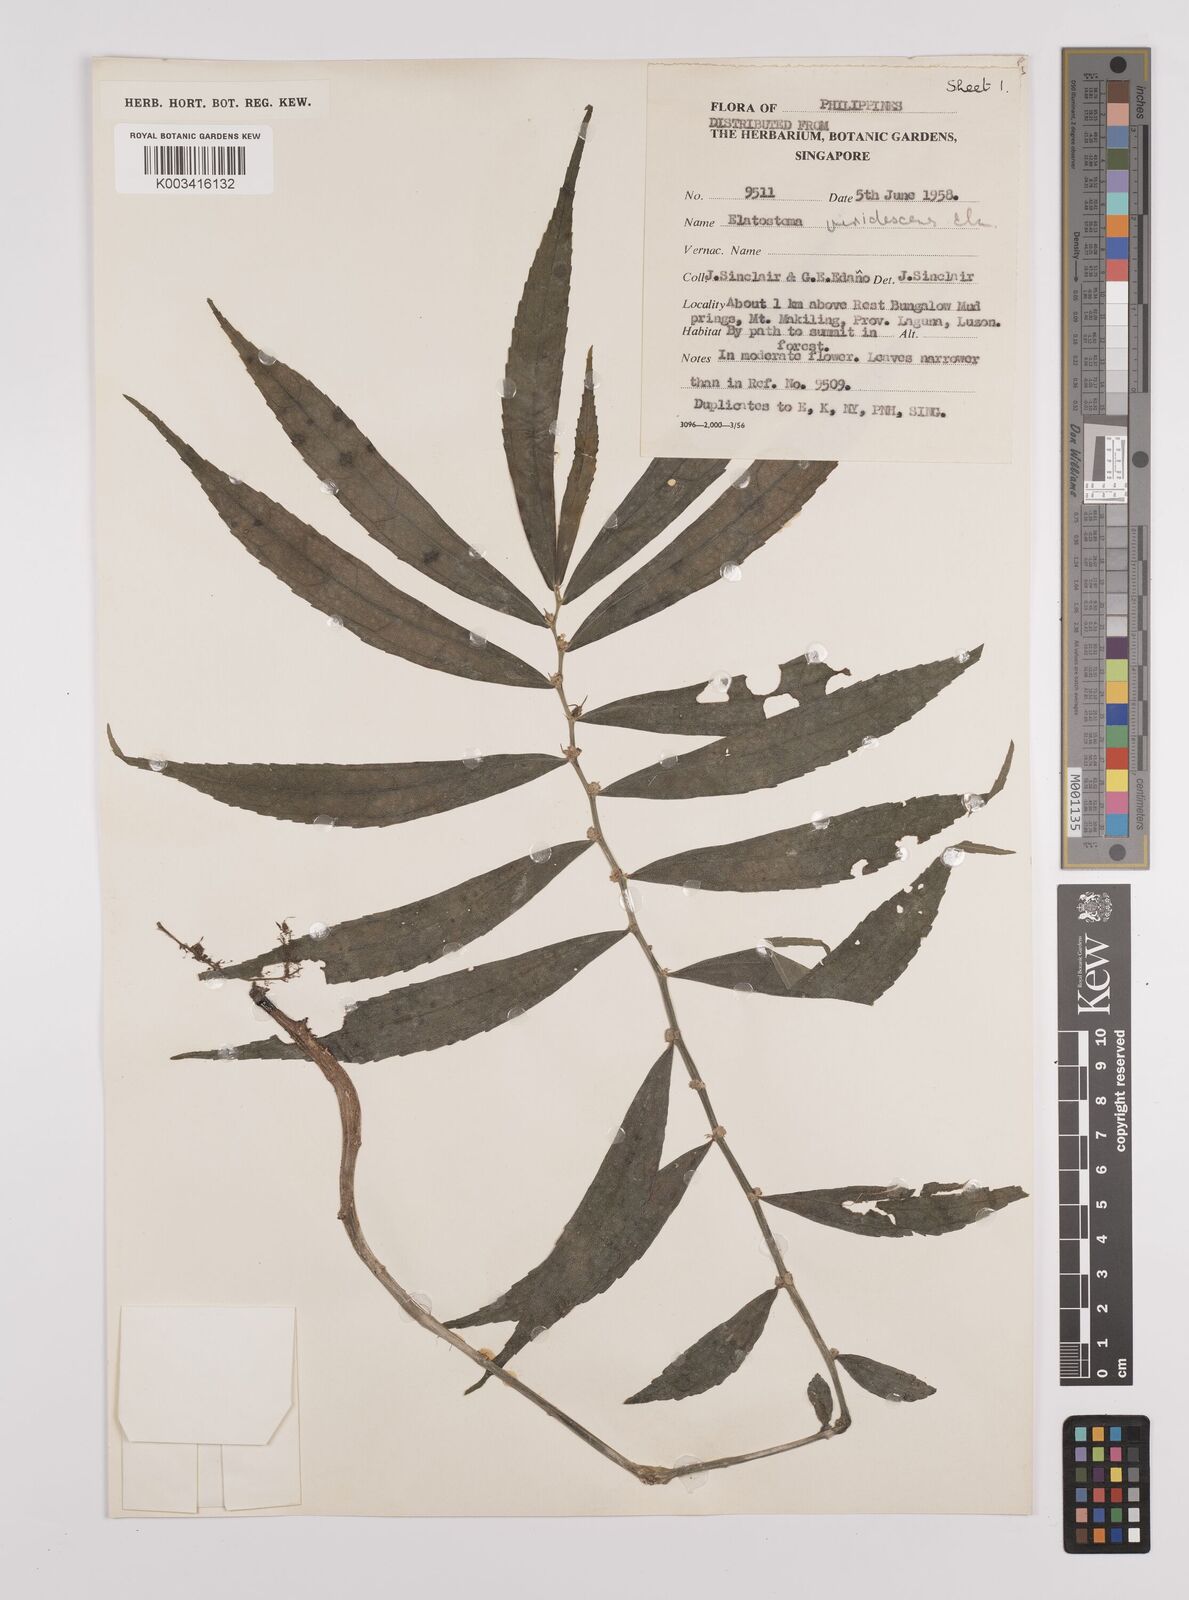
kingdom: Plantae
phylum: Tracheophyta
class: Magnoliopsida
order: Rosales
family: Urticaceae
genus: Elatostema
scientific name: Elatostema viridescens
